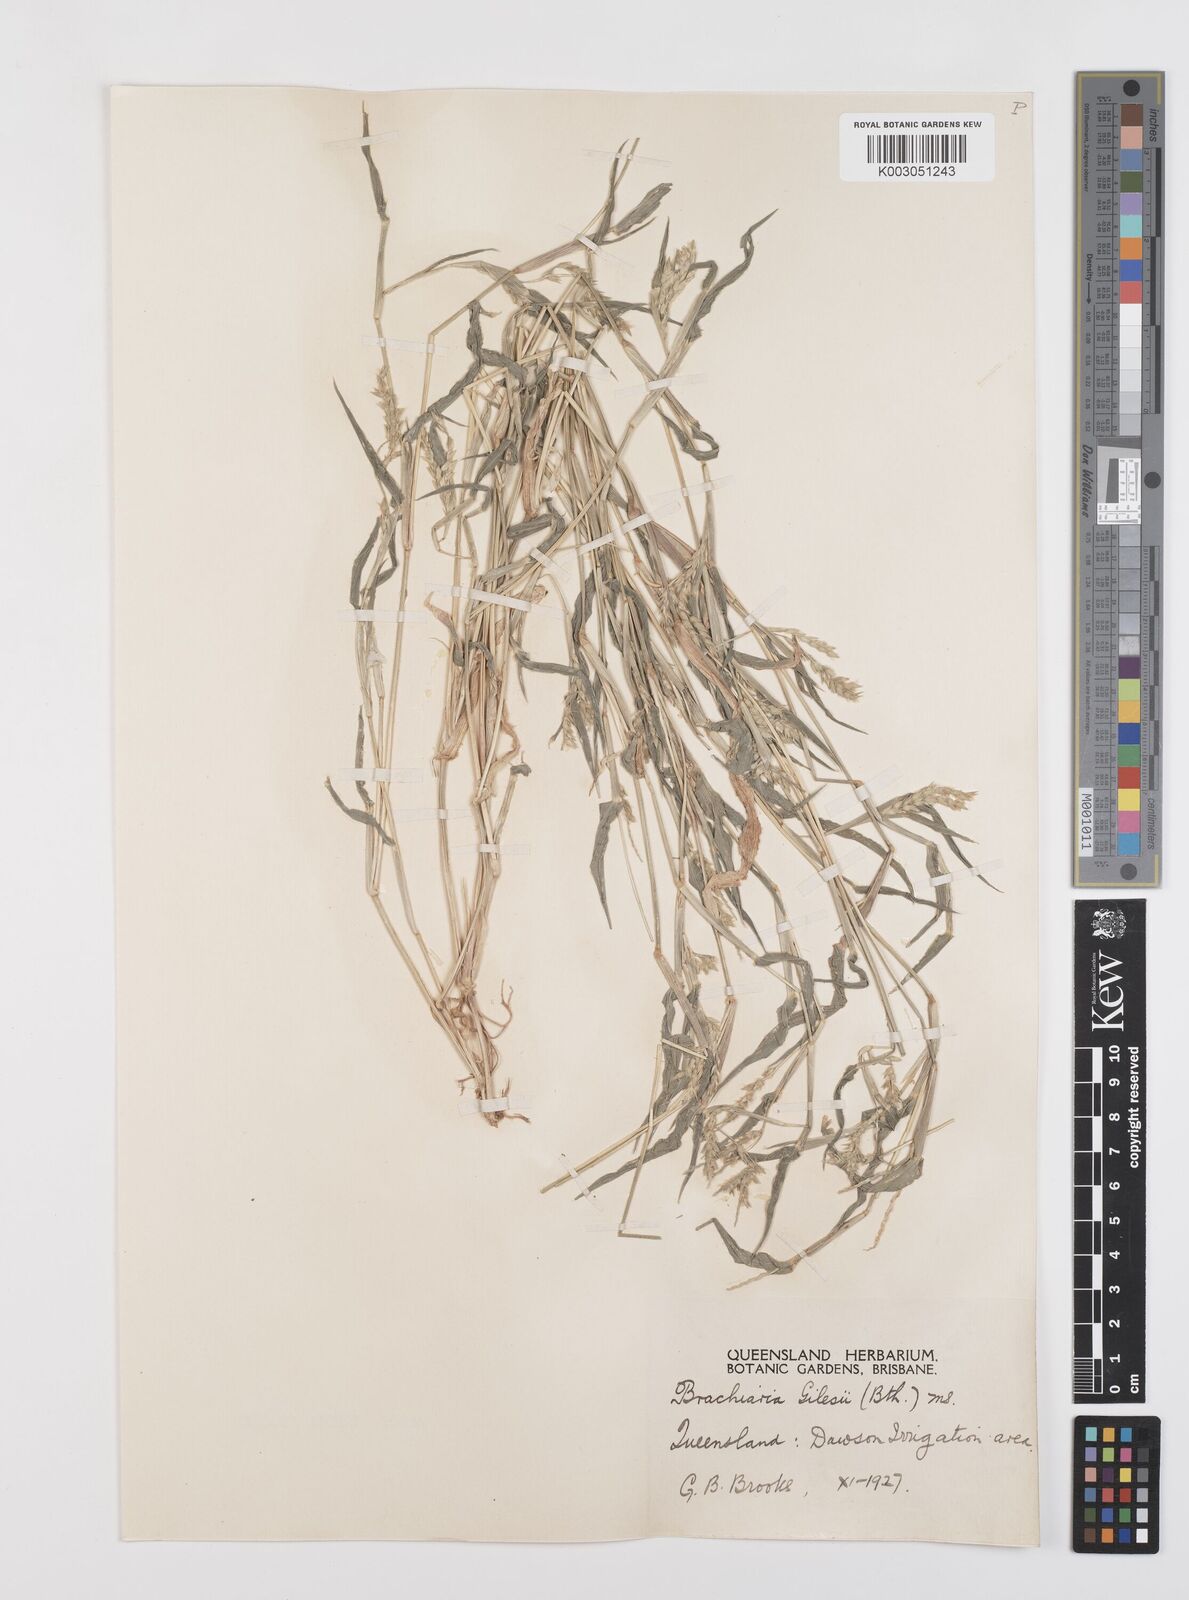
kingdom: Plantae
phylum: Tracheophyta
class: Liliopsida
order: Poales
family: Poaceae
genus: Urochloa
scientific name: Urochloa gilesii
